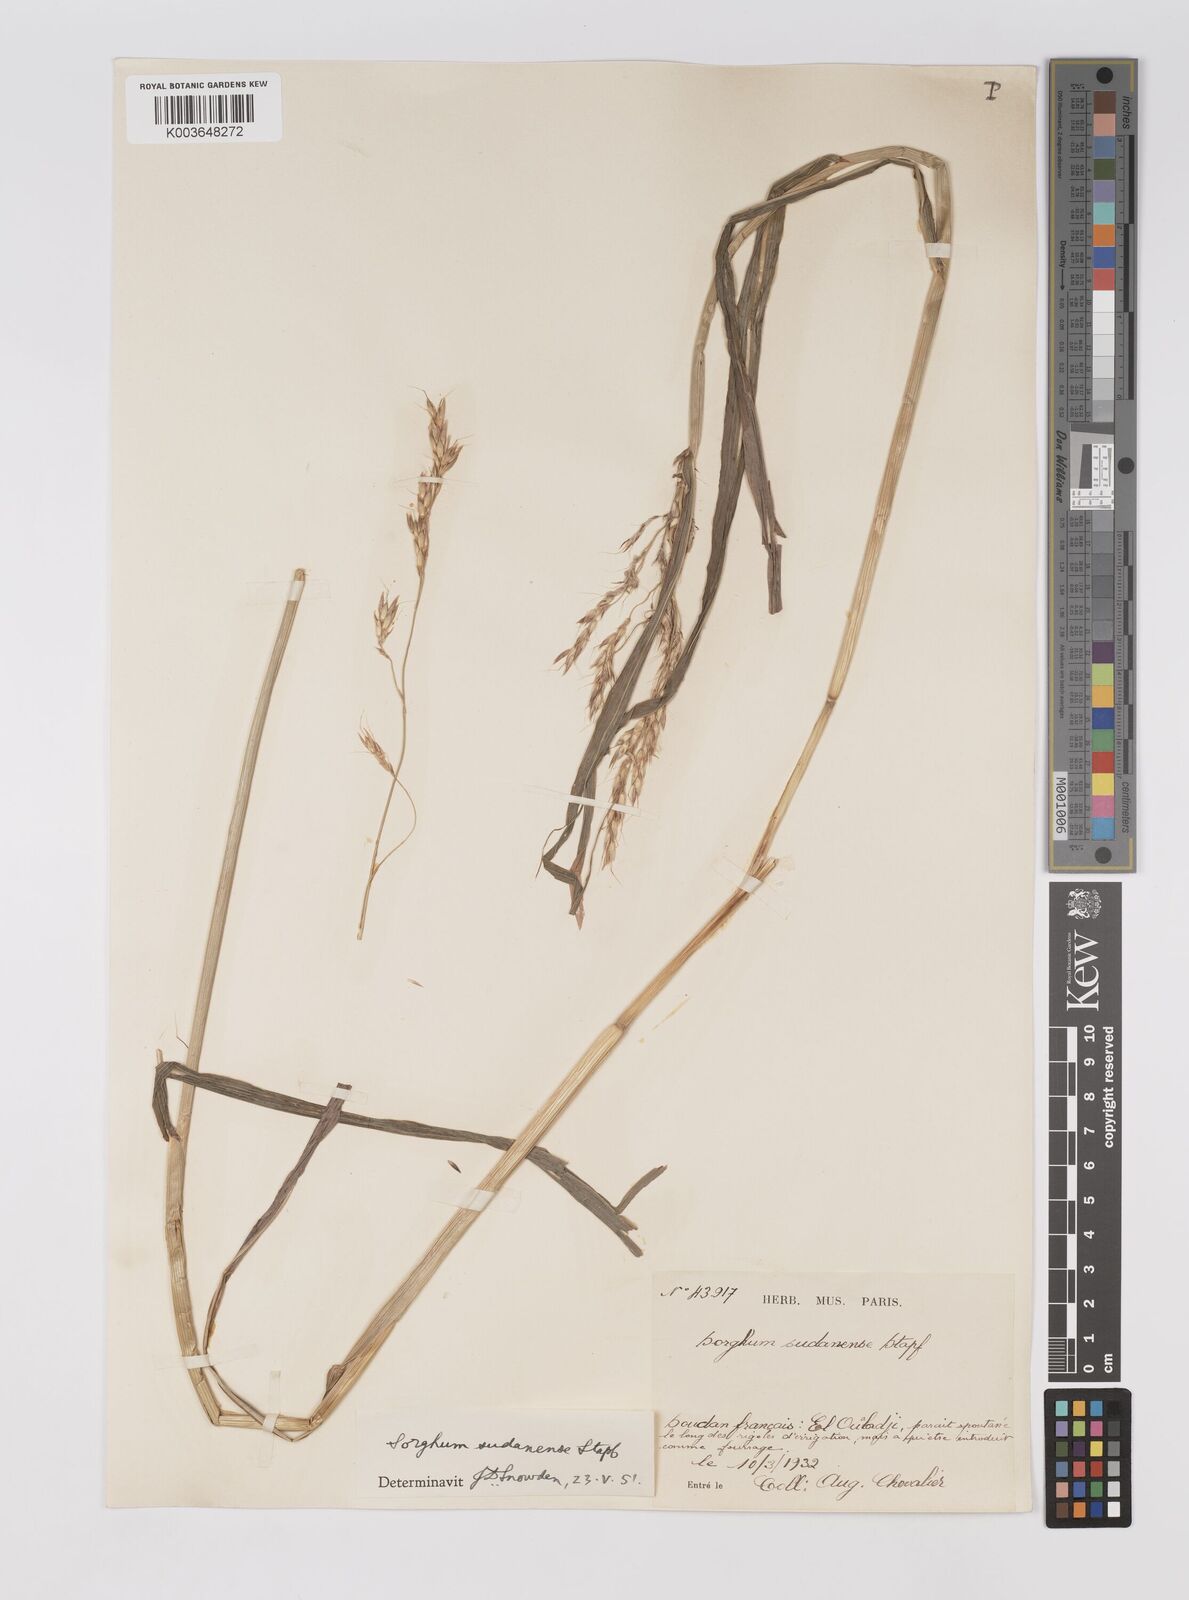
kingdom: Plantae
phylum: Tracheophyta
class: Liliopsida
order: Poales
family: Poaceae
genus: Sorghum
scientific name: Sorghum drummondii
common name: Sudangrass
